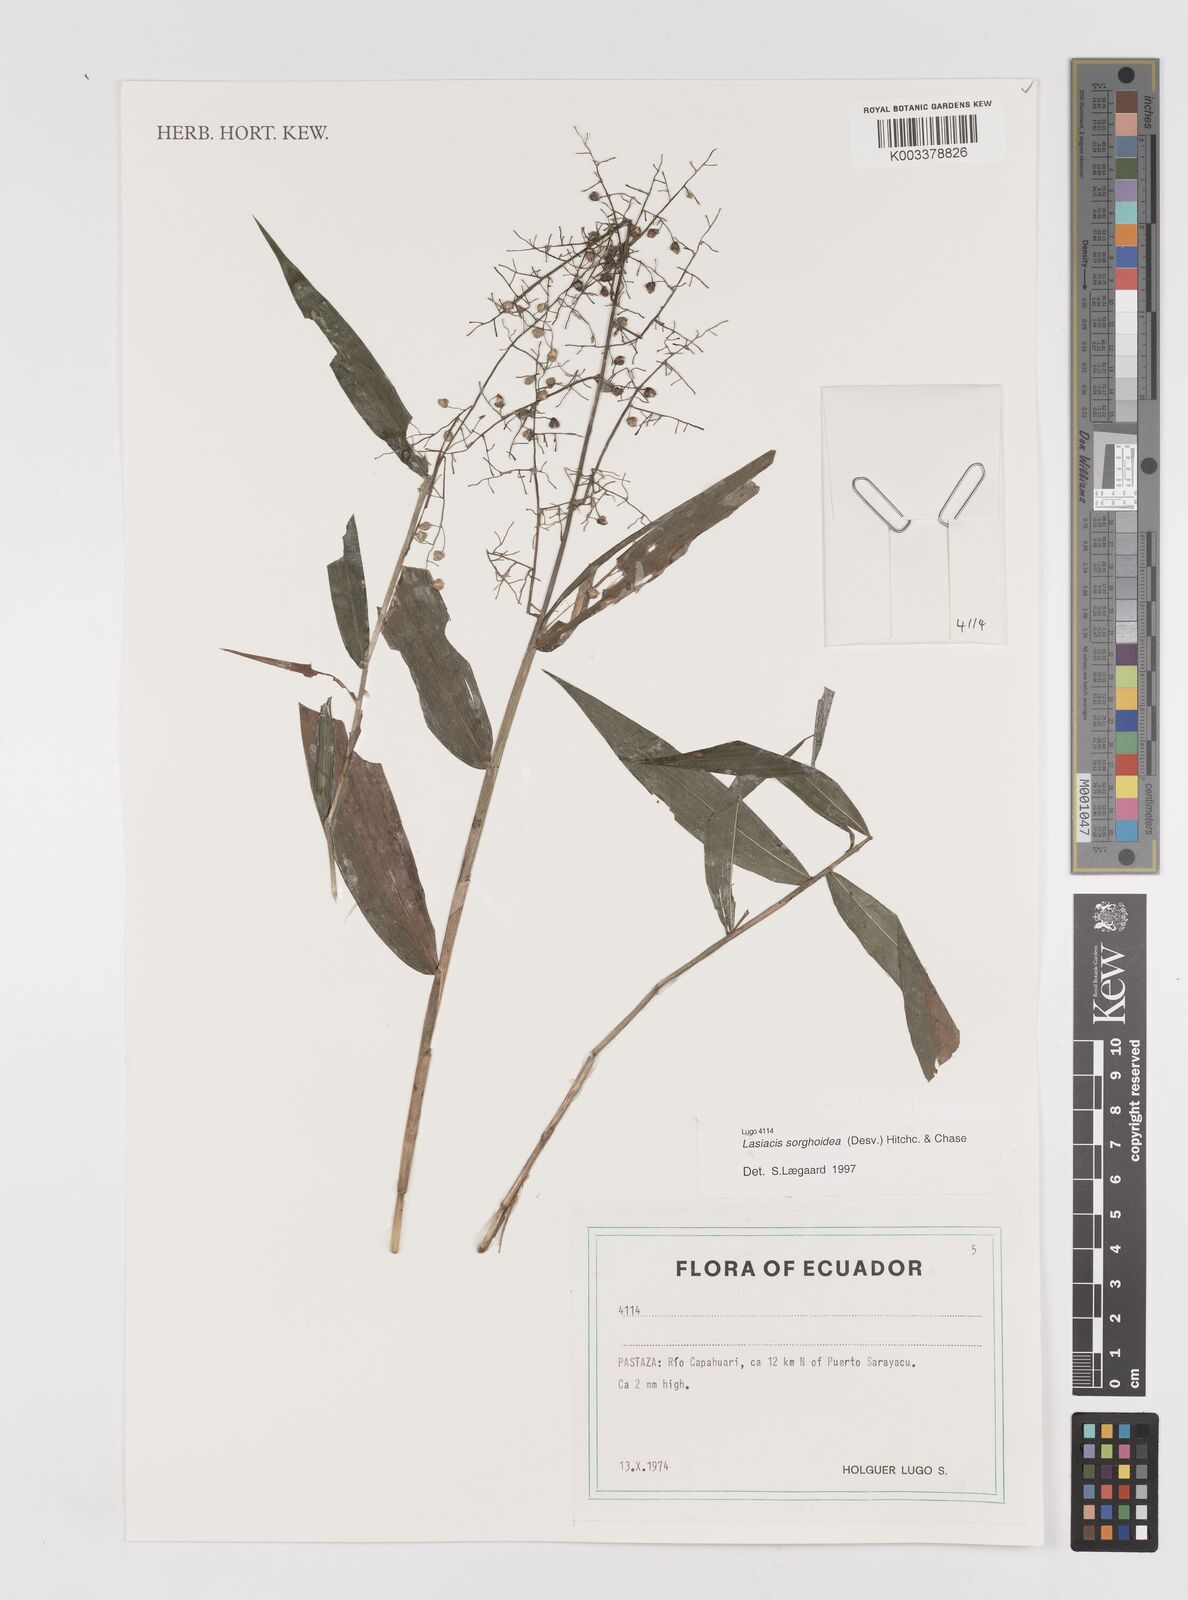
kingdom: Plantae
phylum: Tracheophyta
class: Liliopsida
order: Poales
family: Poaceae
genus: Lasiacis
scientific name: Lasiacis maculata
